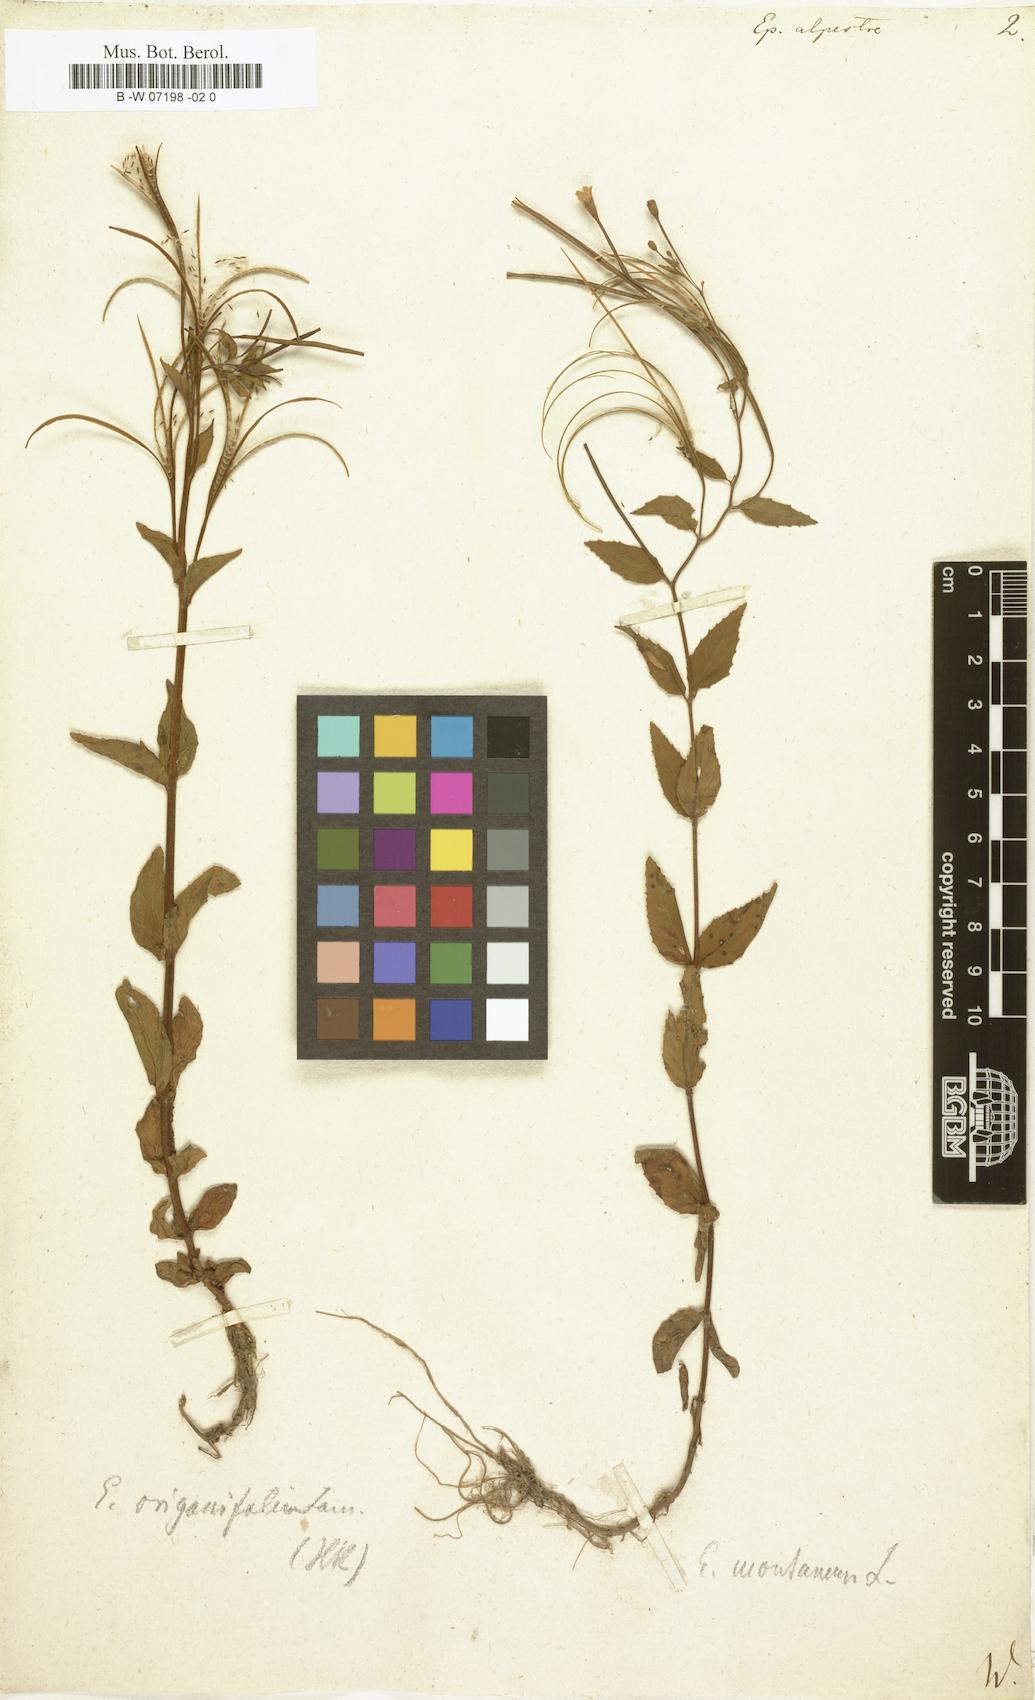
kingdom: Plantae
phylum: Tracheophyta
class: Magnoliopsida
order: Myrtales
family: Onagraceae
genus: Epilobium
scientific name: Epilobium alpestre
